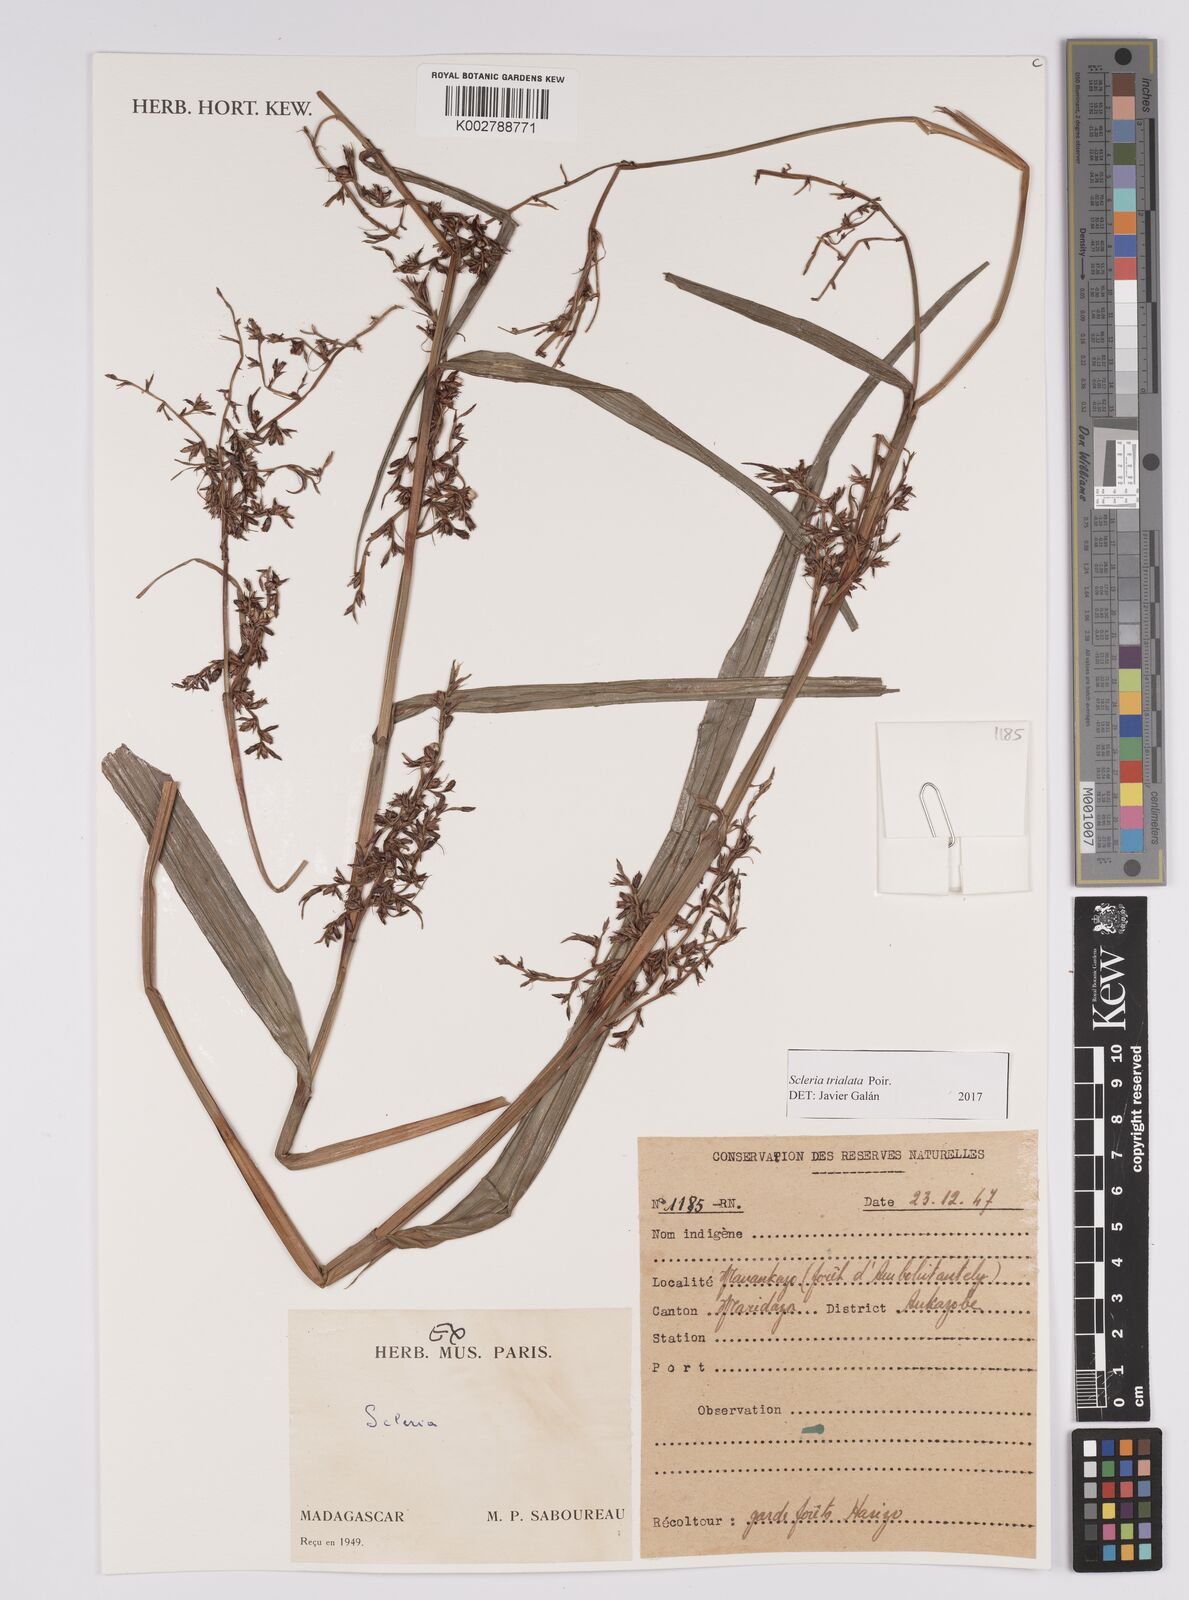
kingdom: Plantae
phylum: Tracheophyta
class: Liliopsida
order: Poales
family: Cyperaceae
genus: Scleria
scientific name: Scleria trialata
